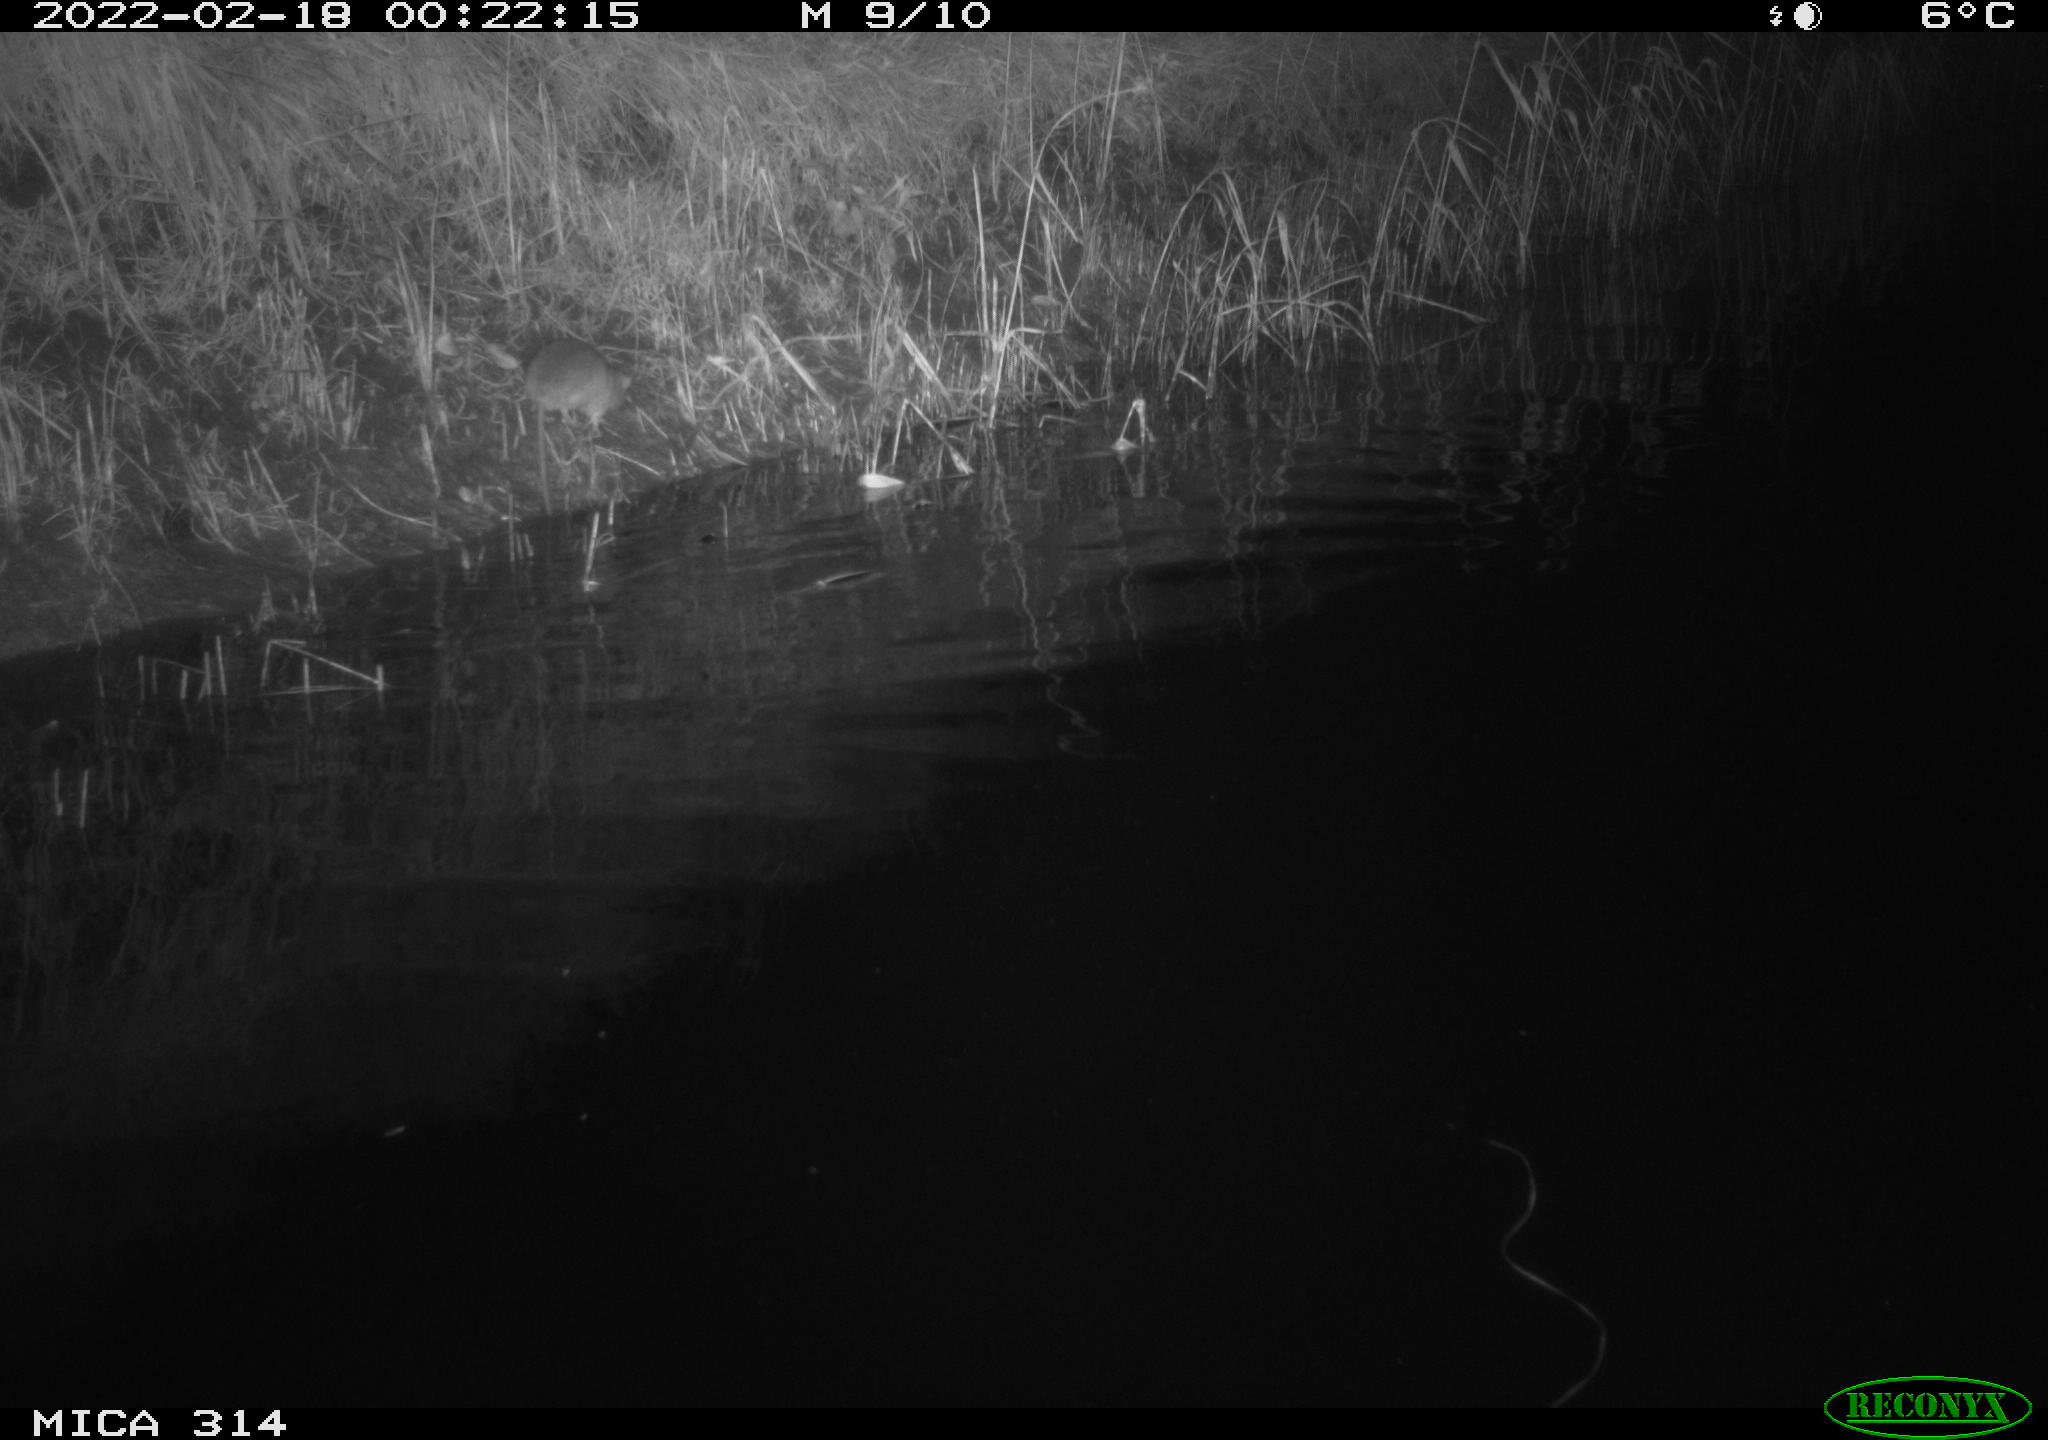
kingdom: Animalia
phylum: Chordata
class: Mammalia
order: Rodentia
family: Muridae
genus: Rattus
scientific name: Rattus norvegicus
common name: Brown rat
